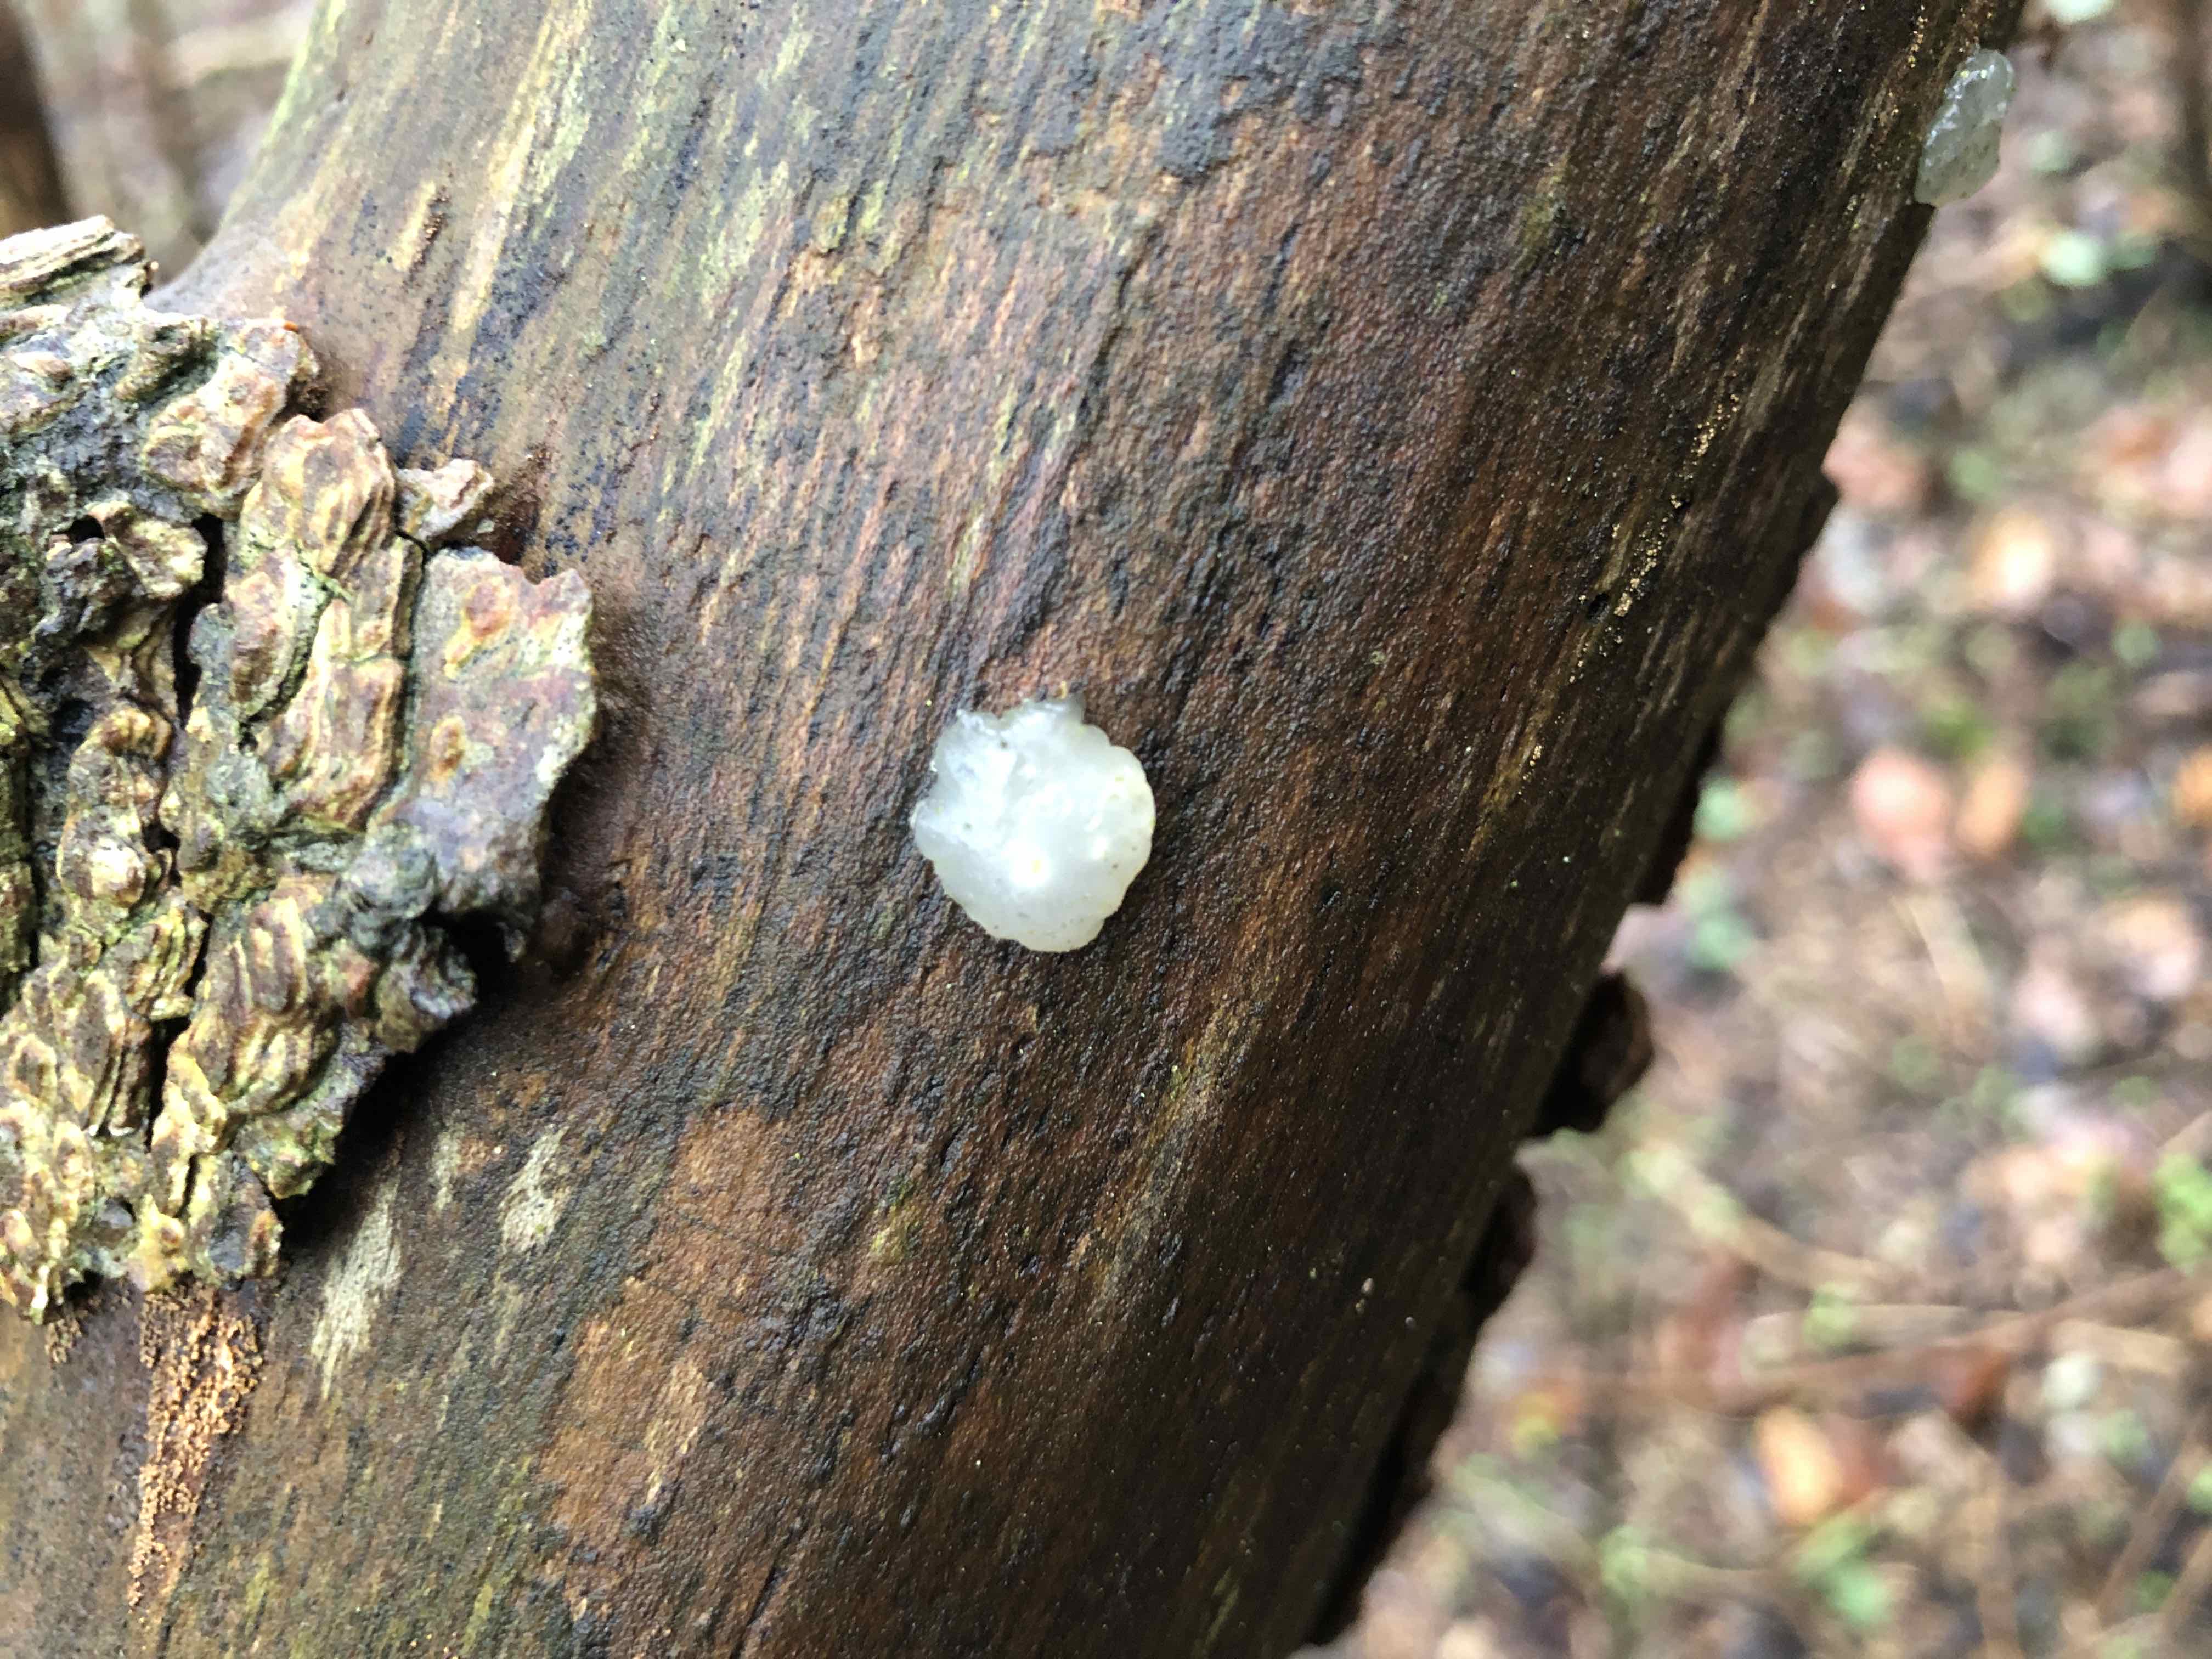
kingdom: Fungi
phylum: Basidiomycota
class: Agaricomycetes
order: Auriculariales
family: Hyaloriaceae
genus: Myxarium
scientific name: Myxarium nucleatum
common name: klar bævretop
